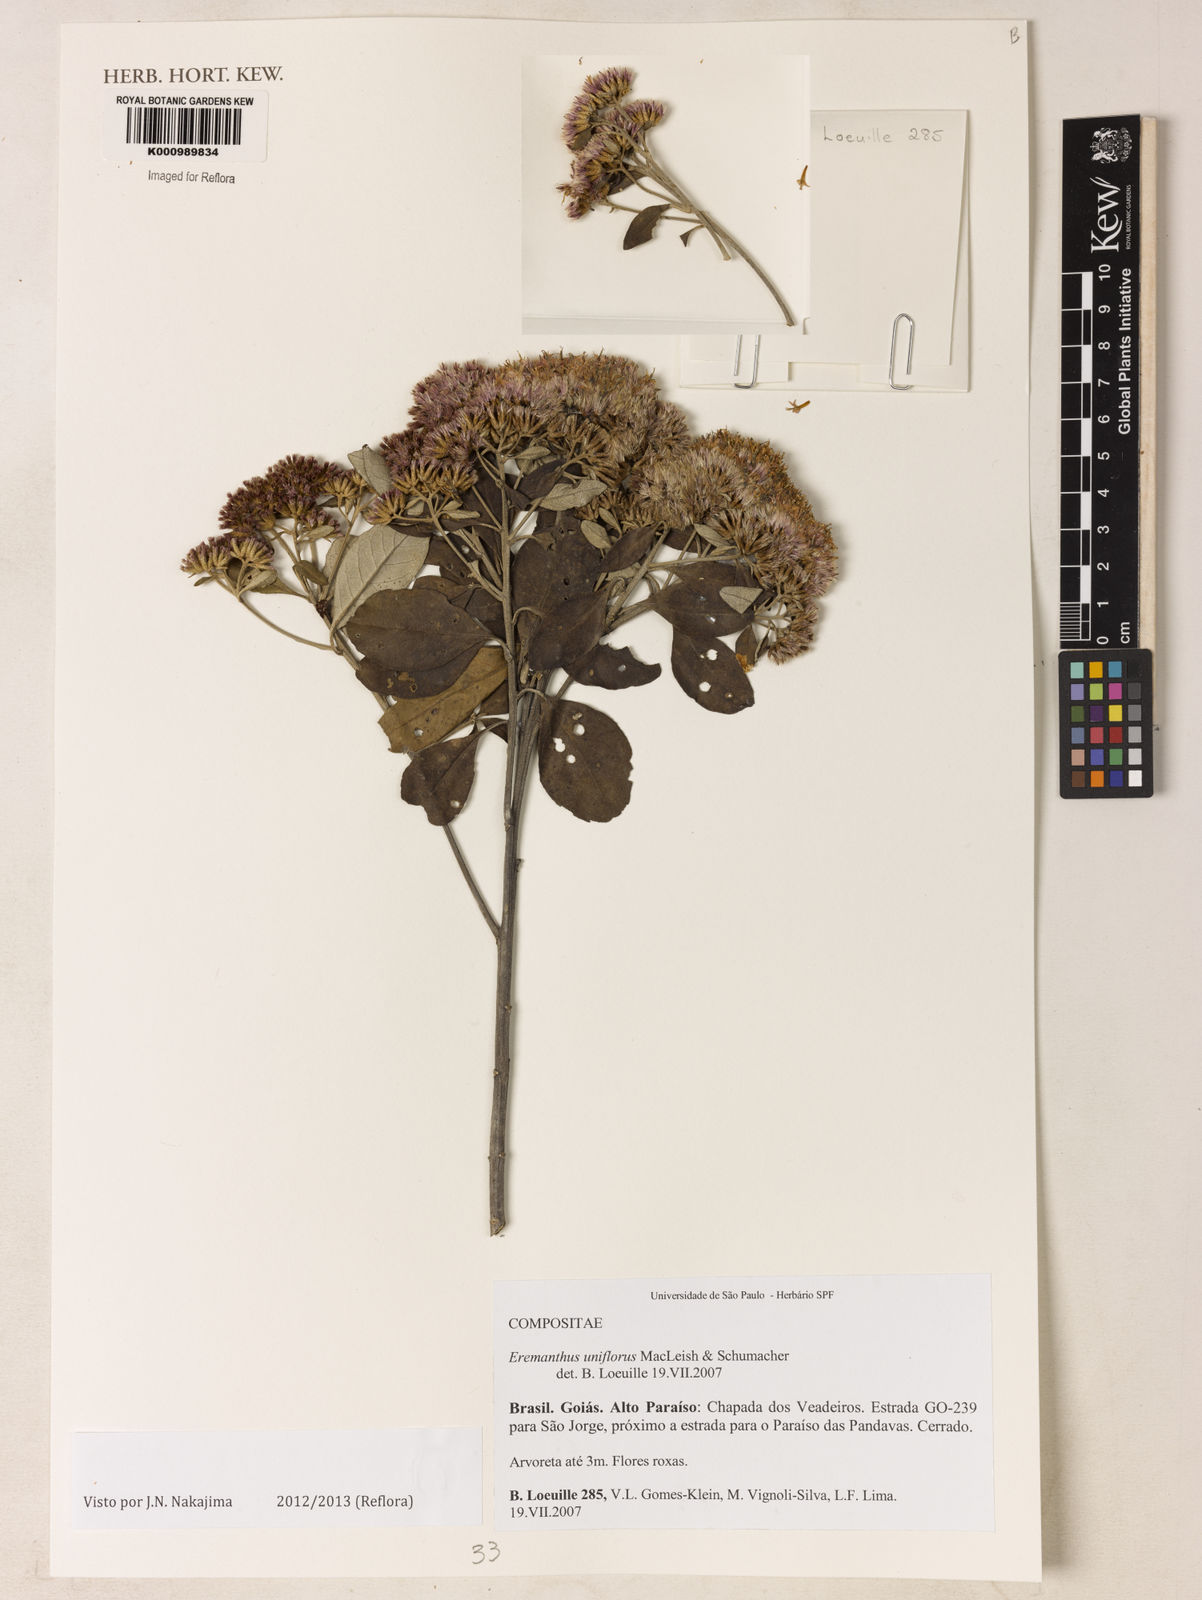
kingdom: Plantae
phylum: Tracheophyta
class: Magnoliopsida
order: Asterales
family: Asteraceae
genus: Eremanthus
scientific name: Eremanthus uniflorus
